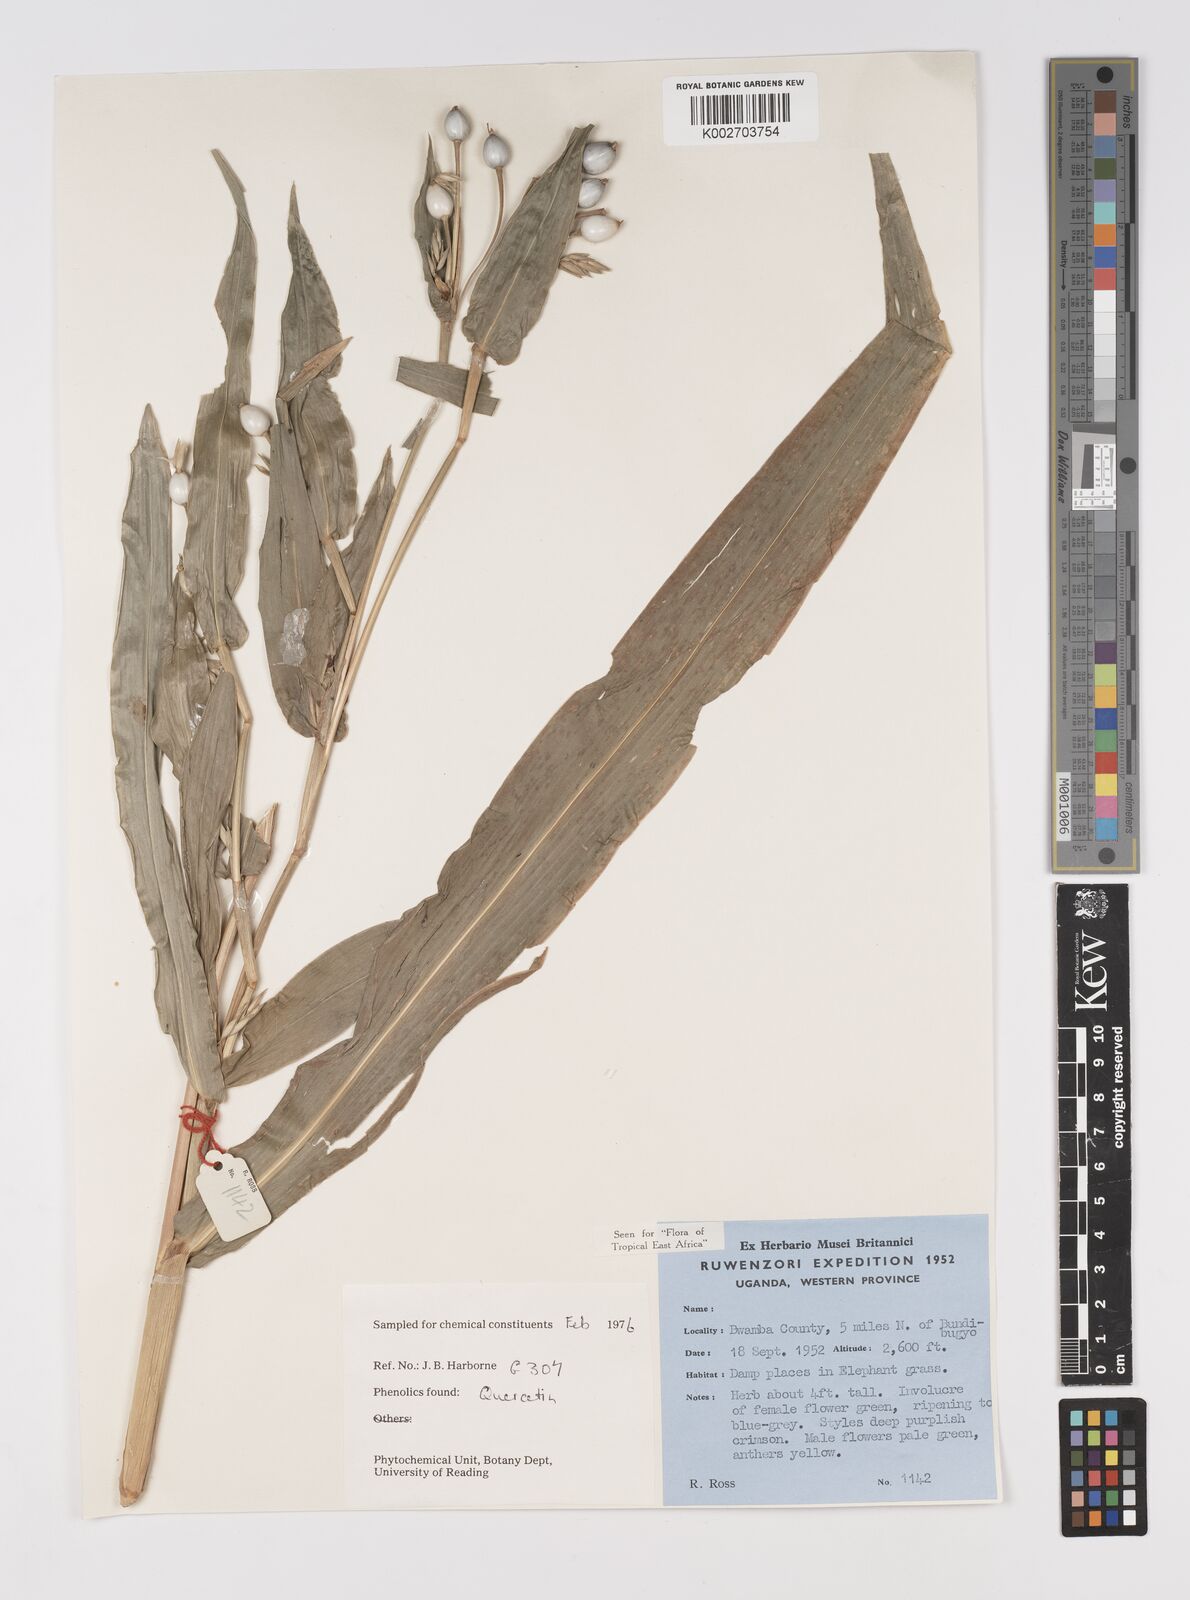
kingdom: Plantae
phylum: Tracheophyta
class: Liliopsida
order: Poales
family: Poaceae
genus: Coix
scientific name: Coix lacryma-jobi
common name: Job's tears
